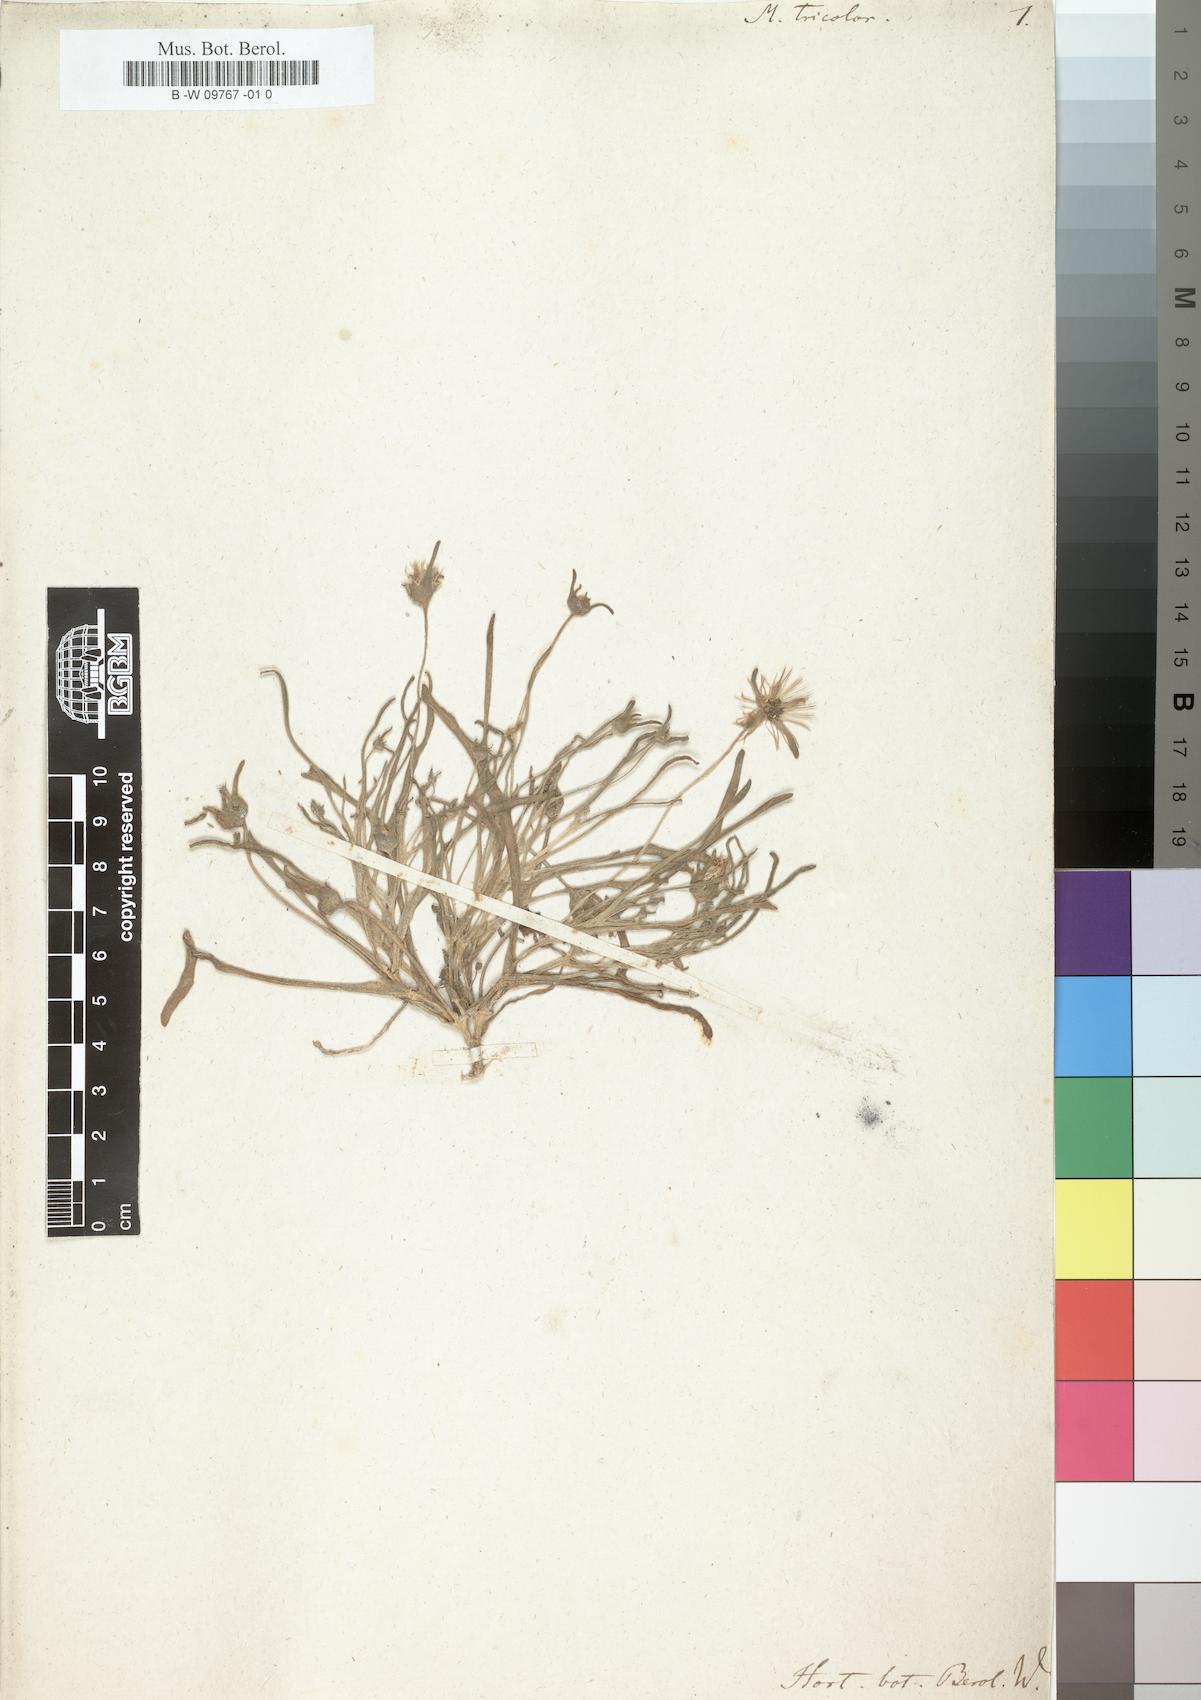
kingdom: Plantae
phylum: Tracheophyta
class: Magnoliopsida
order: Caryophyllales
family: Aizoaceae
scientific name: Aizoaceae
